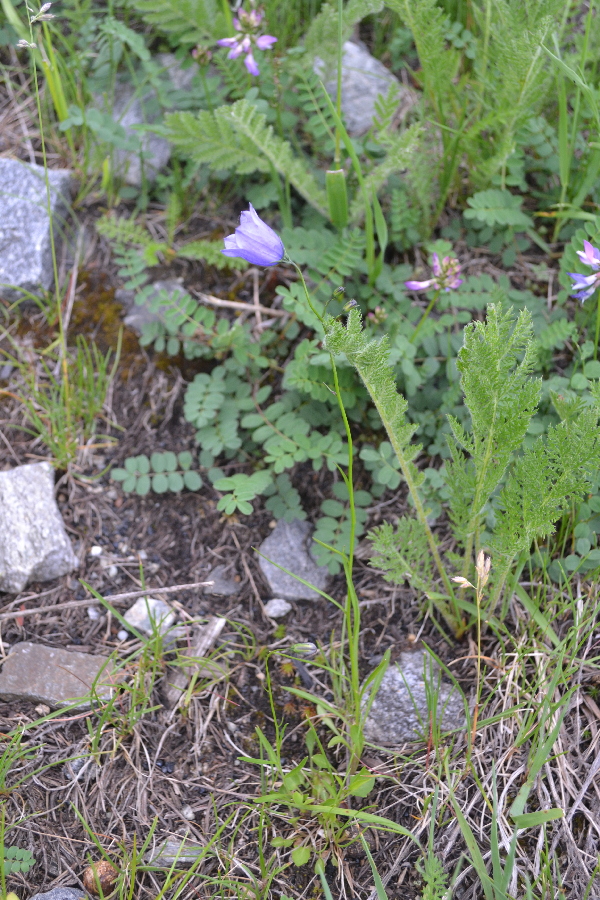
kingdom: Plantae
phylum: Tracheophyta
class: Magnoliopsida
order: Asterales
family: Campanulaceae
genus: Campanula
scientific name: Campanula rotundifolia
